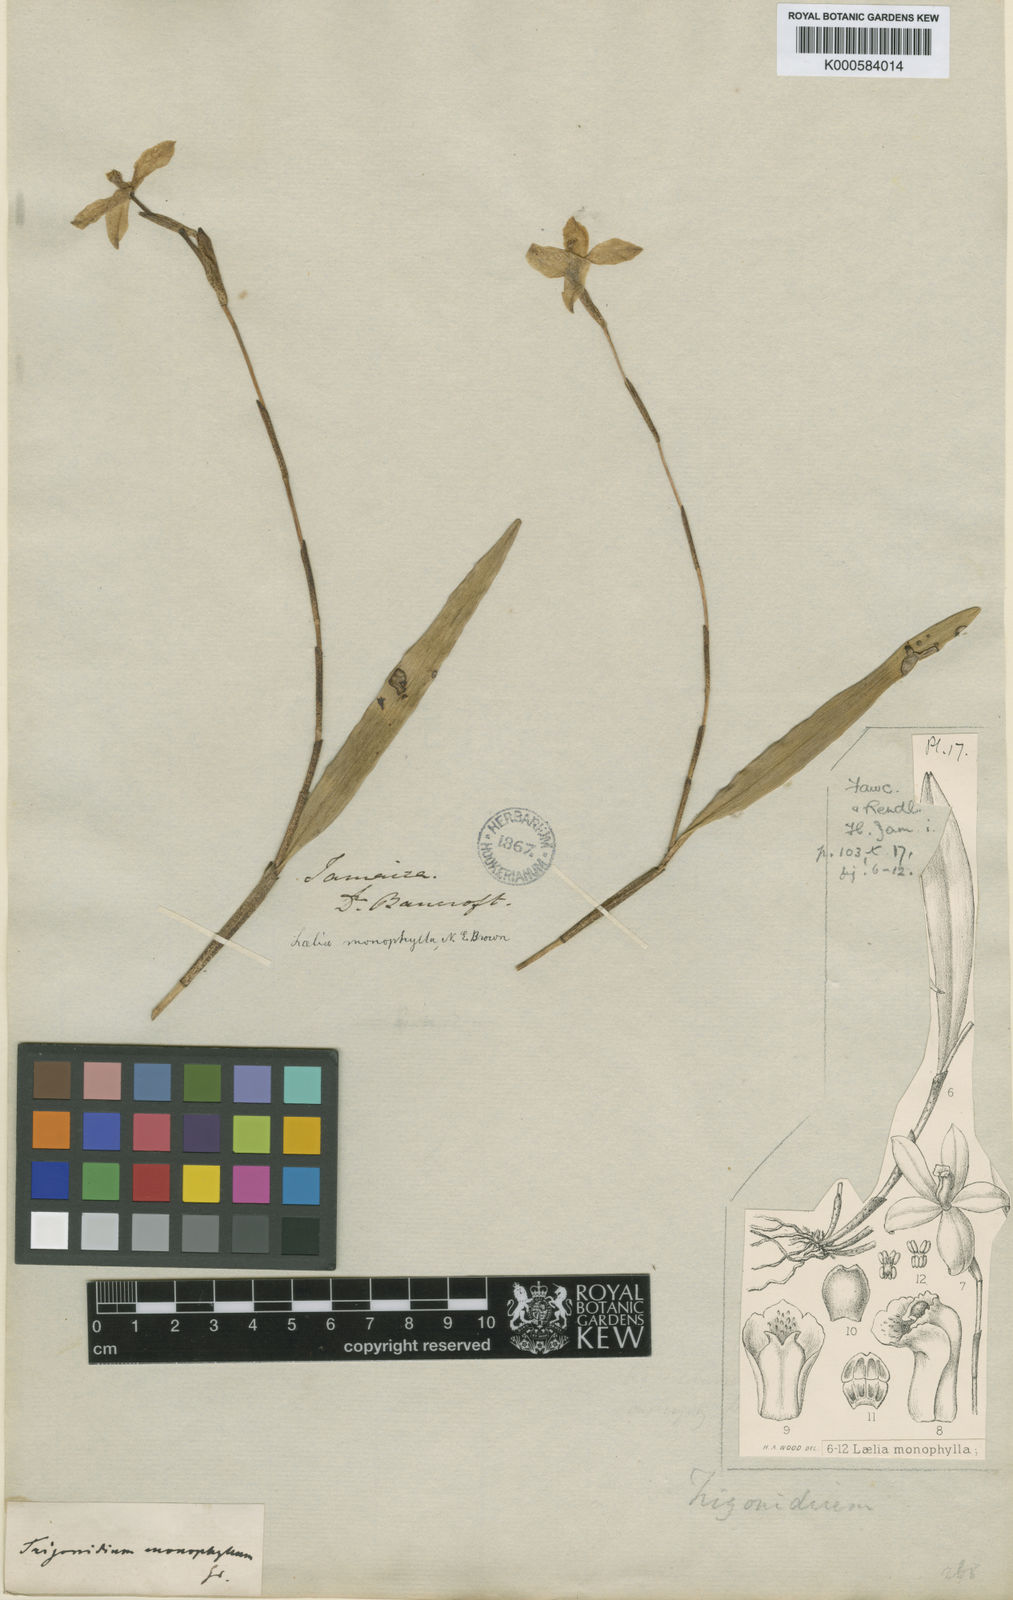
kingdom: Plantae
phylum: Tracheophyta
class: Liliopsida
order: Asparagales
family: Orchidaceae
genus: Neocogniauxia
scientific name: Neocogniauxia monophylla
